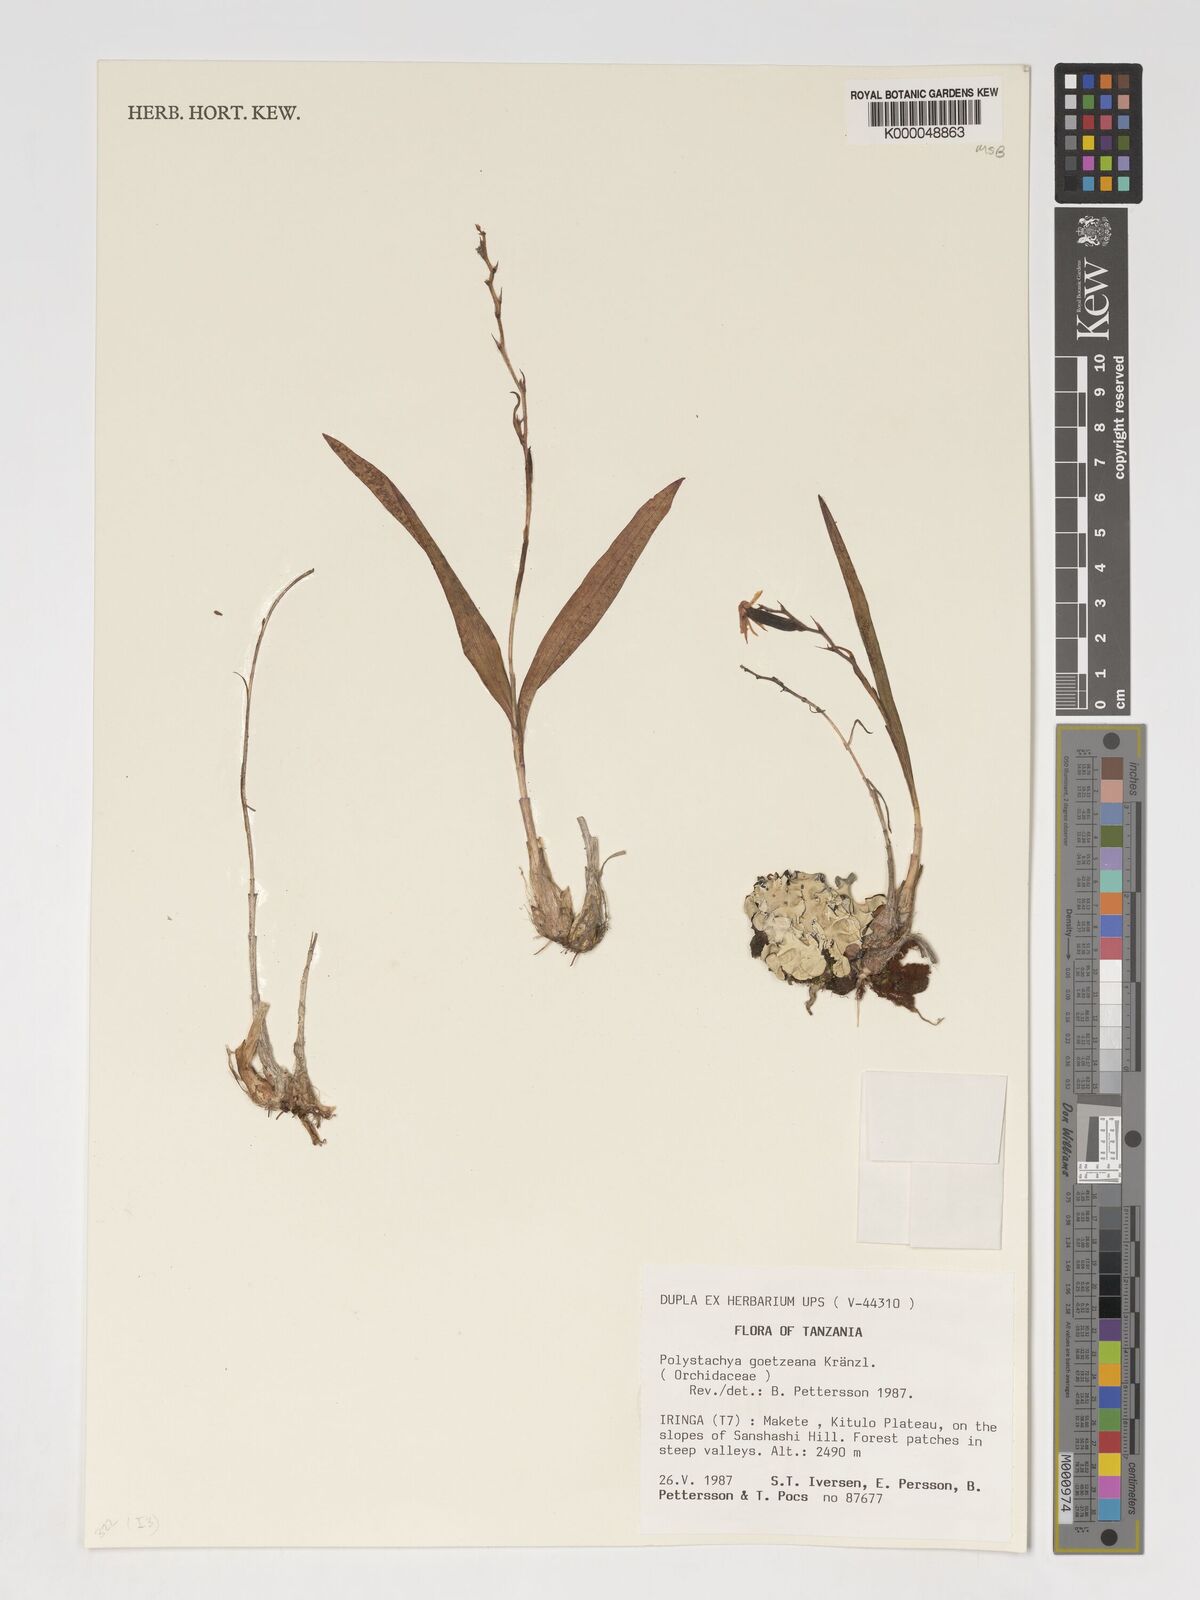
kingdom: Plantae
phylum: Tracheophyta
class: Liliopsida
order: Asparagales
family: Orchidaceae
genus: Polystachya
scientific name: Polystachya goetzeana
